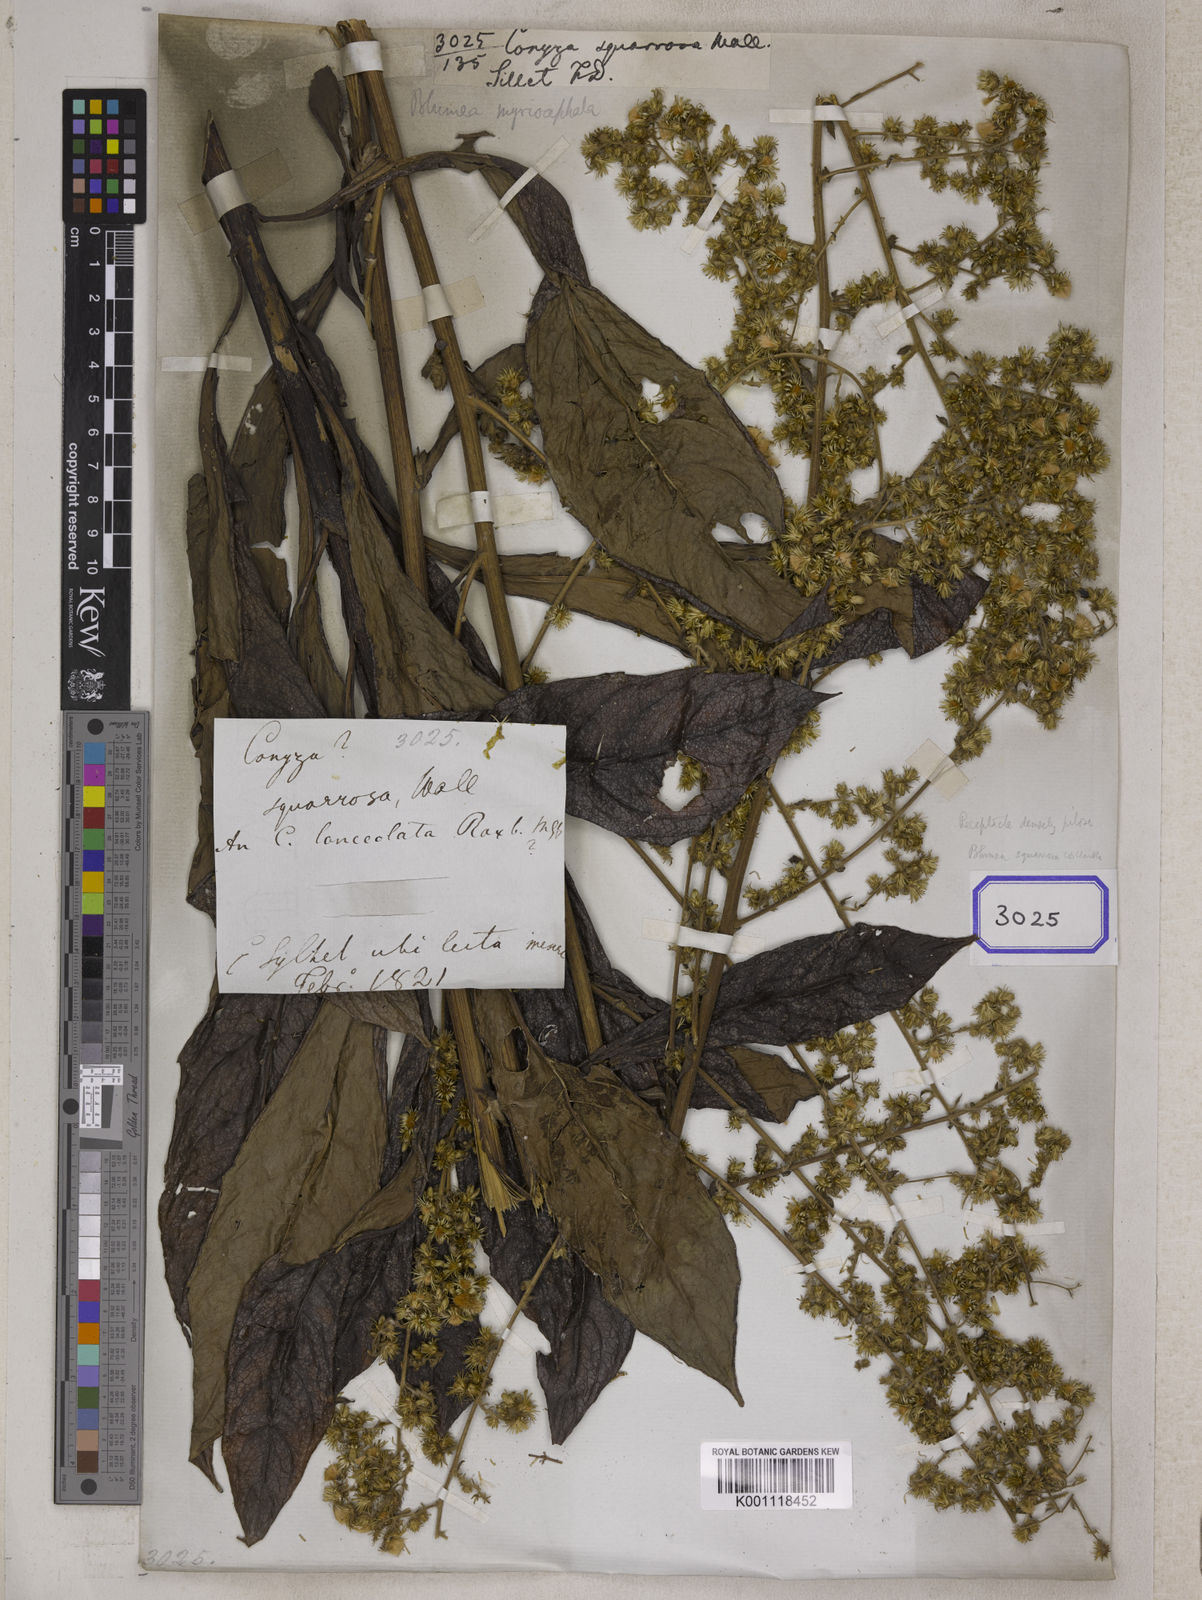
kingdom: Plantae
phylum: Tracheophyta
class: Magnoliopsida
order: Asterales
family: Asteraceae
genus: Blumea
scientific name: Blumea lanceolaria
